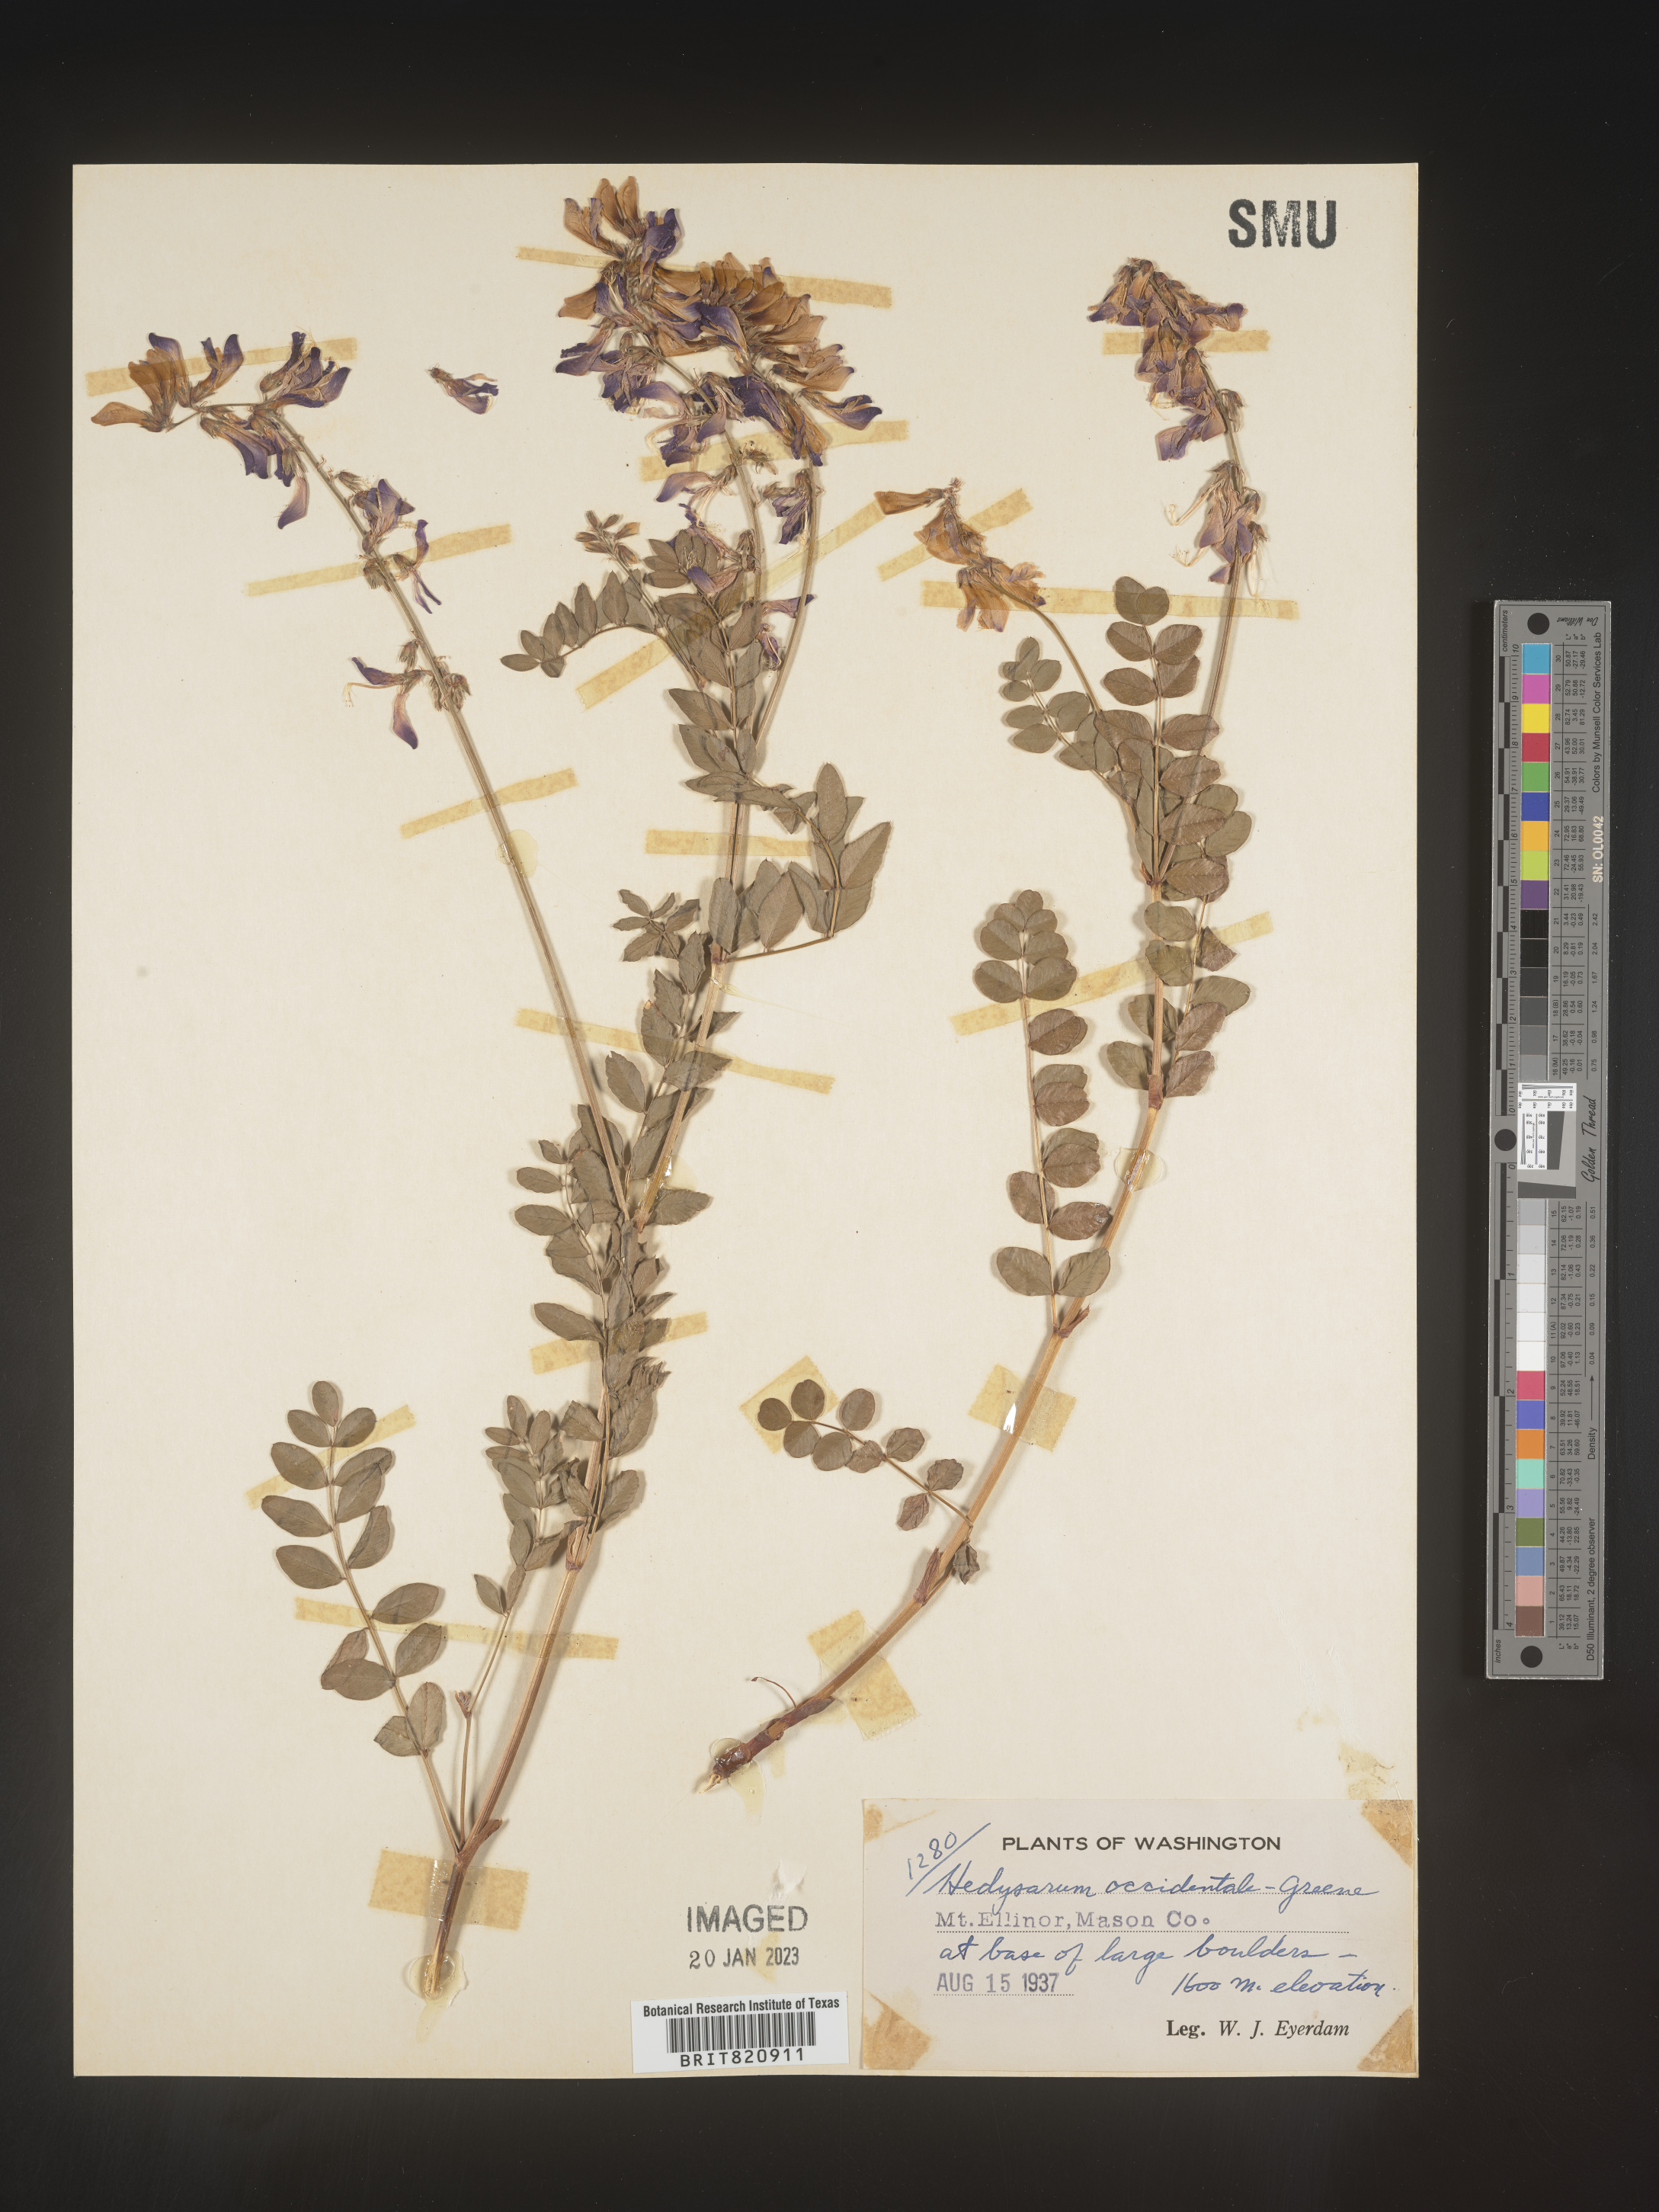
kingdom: Plantae
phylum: Tracheophyta
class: Magnoliopsida
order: Fabales
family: Fabaceae
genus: Hedysarum
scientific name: Hedysarum occidentale
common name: Western hedysarum
